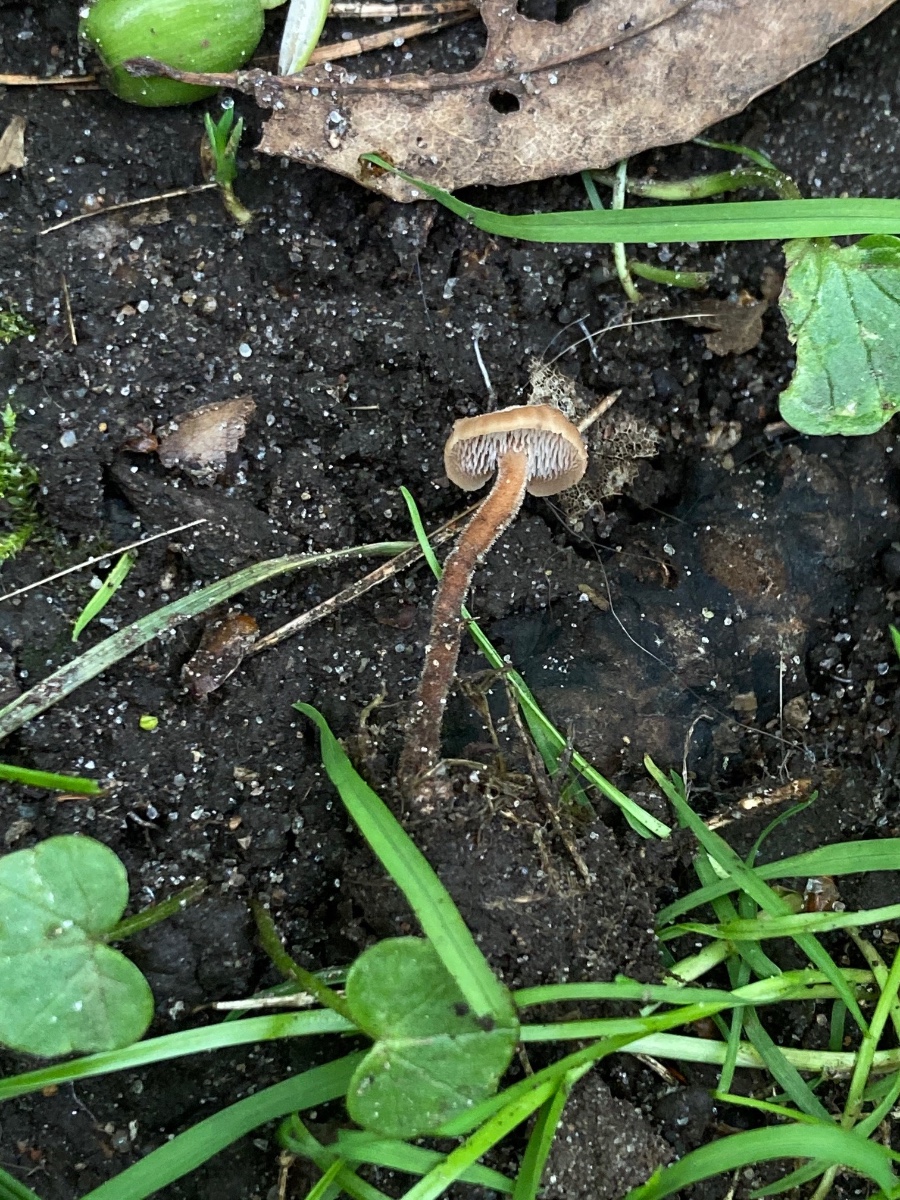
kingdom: Fungi
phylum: Basidiomycota
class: Agaricomycetes
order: Russulales
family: Auriscalpiaceae
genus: Auriscalpium
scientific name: Auriscalpium vulgare
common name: koglepigsvamp
